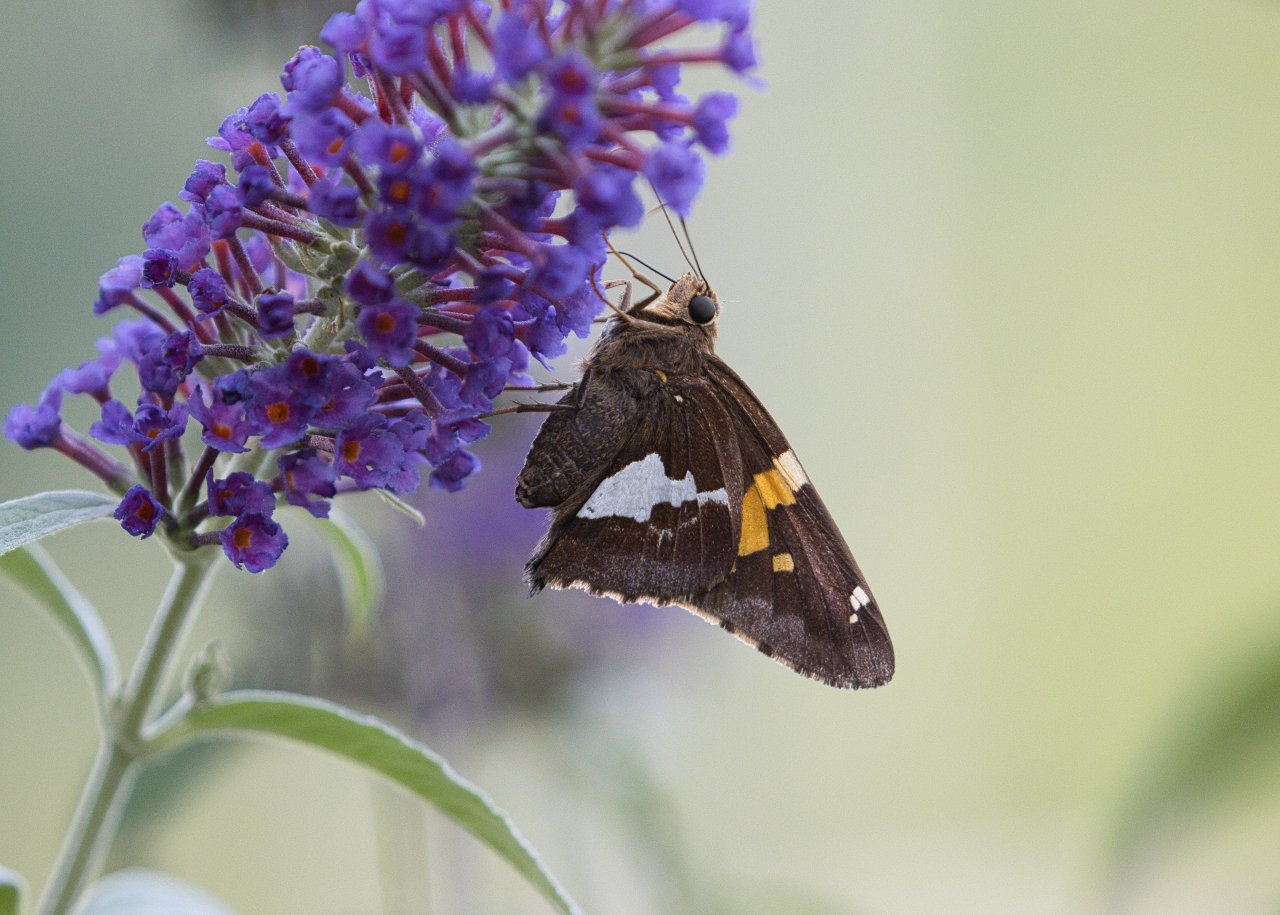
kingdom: Animalia
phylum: Arthropoda
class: Insecta
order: Lepidoptera
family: Hesperiidae
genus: Epargyreus
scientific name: Epargyreus clarus
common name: Silver-spotted Skipper
